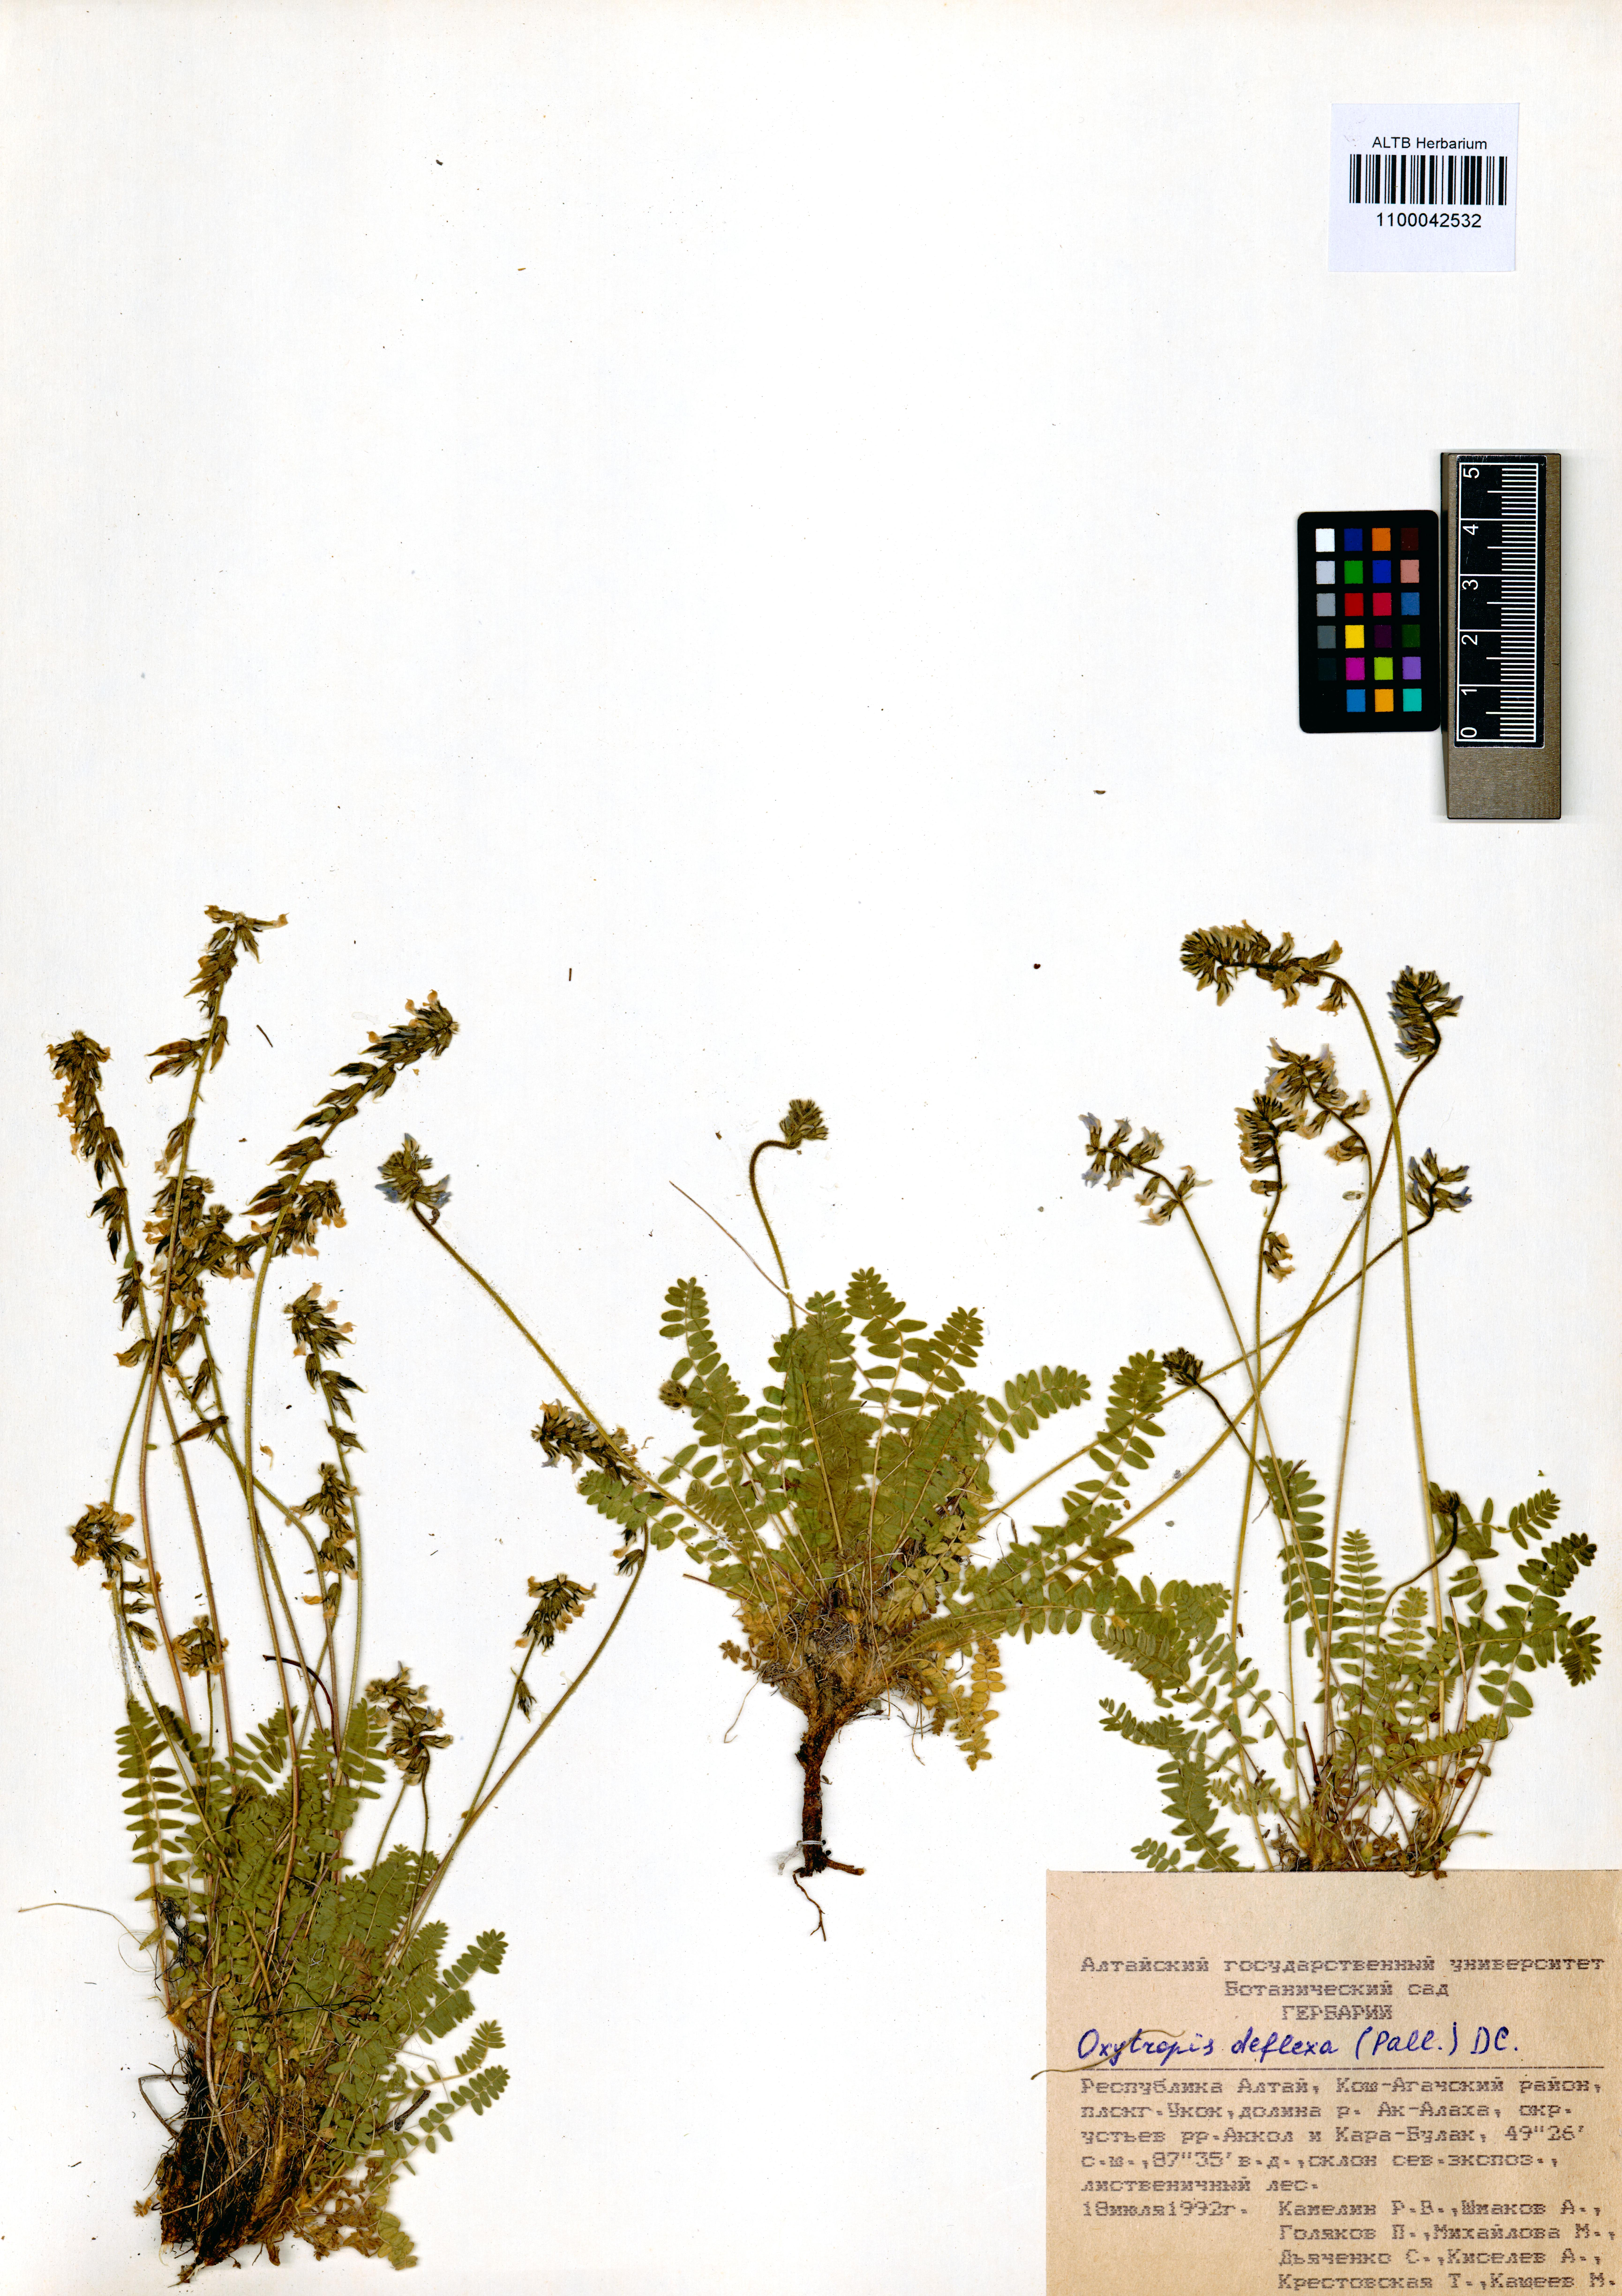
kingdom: Plantae
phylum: Tracheophyta
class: Magnoliopsida
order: Fabales
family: Fabaceae
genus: Oxytropis
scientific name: Oxytropis deflexa
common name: Stemmed oxytrope
